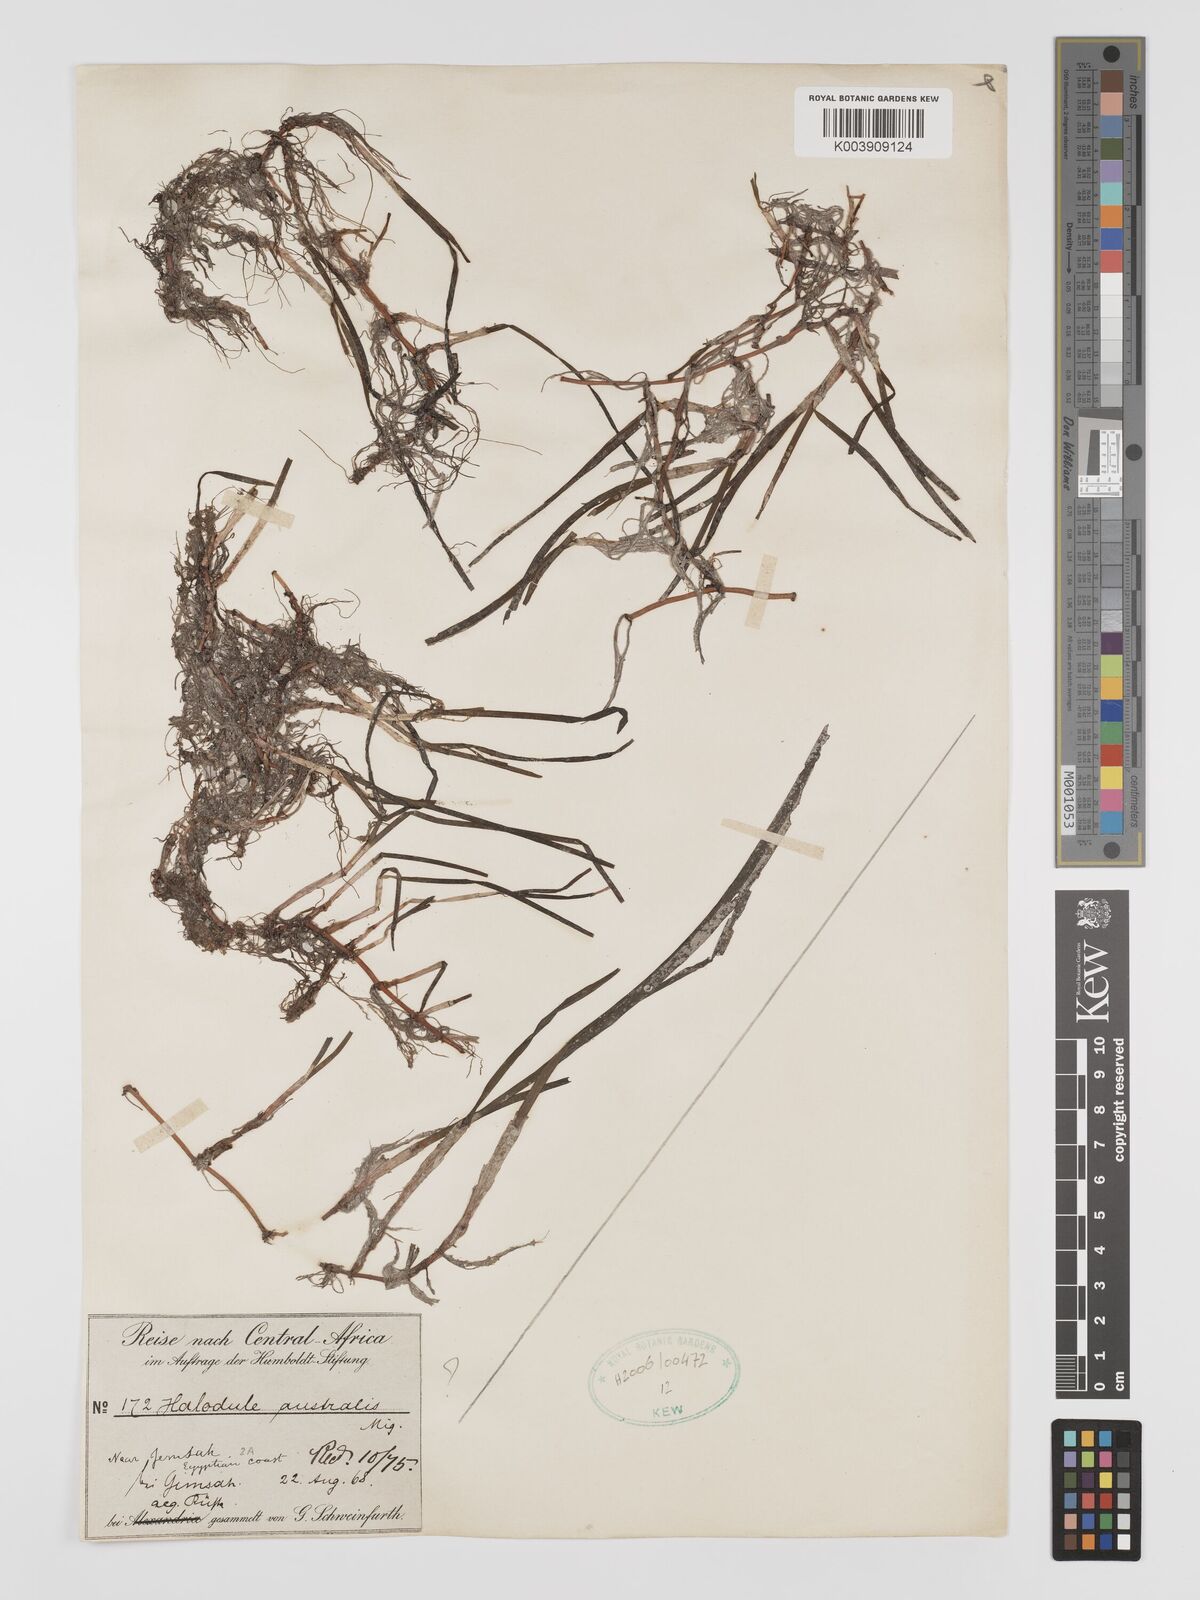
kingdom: Plantae
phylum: Tracheophyta
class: Liliopsida
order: Alismatales
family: Cymodoceaceae
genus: Halodule
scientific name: Halodule uninervis
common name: Narrowleaf seagrass
